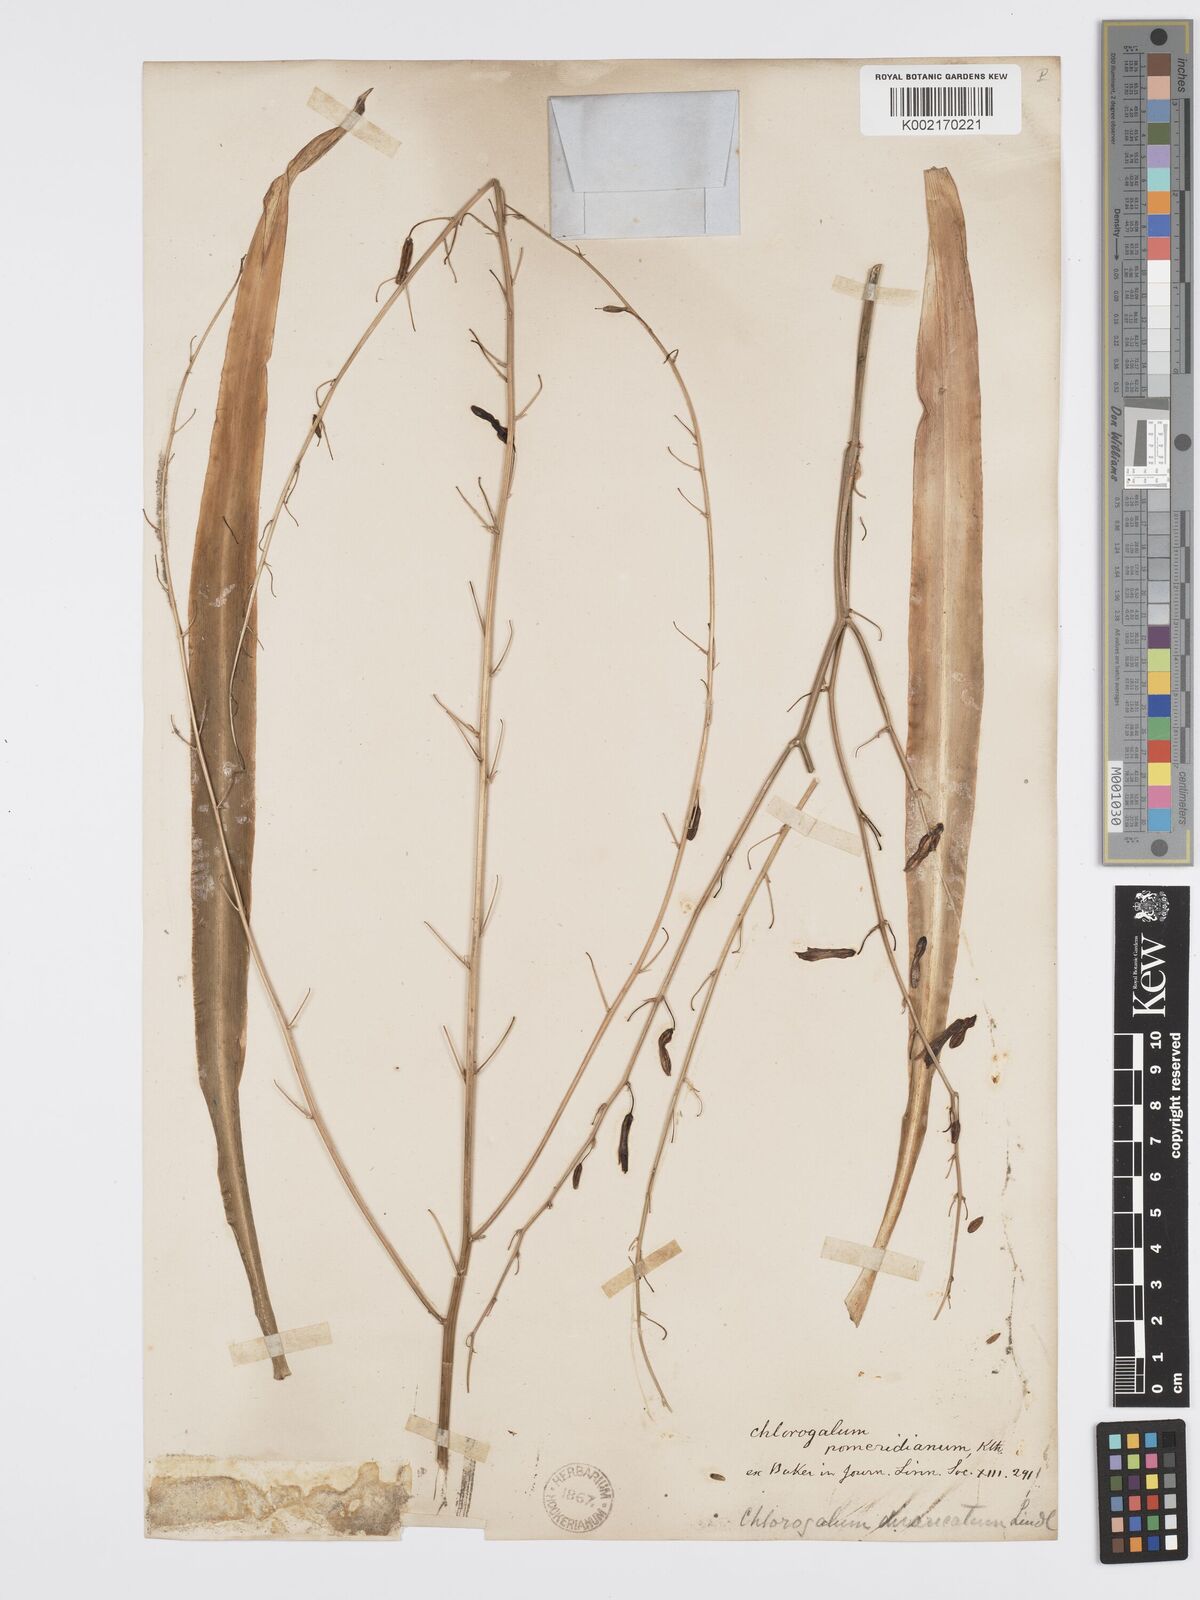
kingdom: Plantae
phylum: Tracheophyta
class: Liliopsida
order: Asparagales
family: Asparagaceae
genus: Chlorogalum
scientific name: Chlorogalum pomeridianum
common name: Amole
